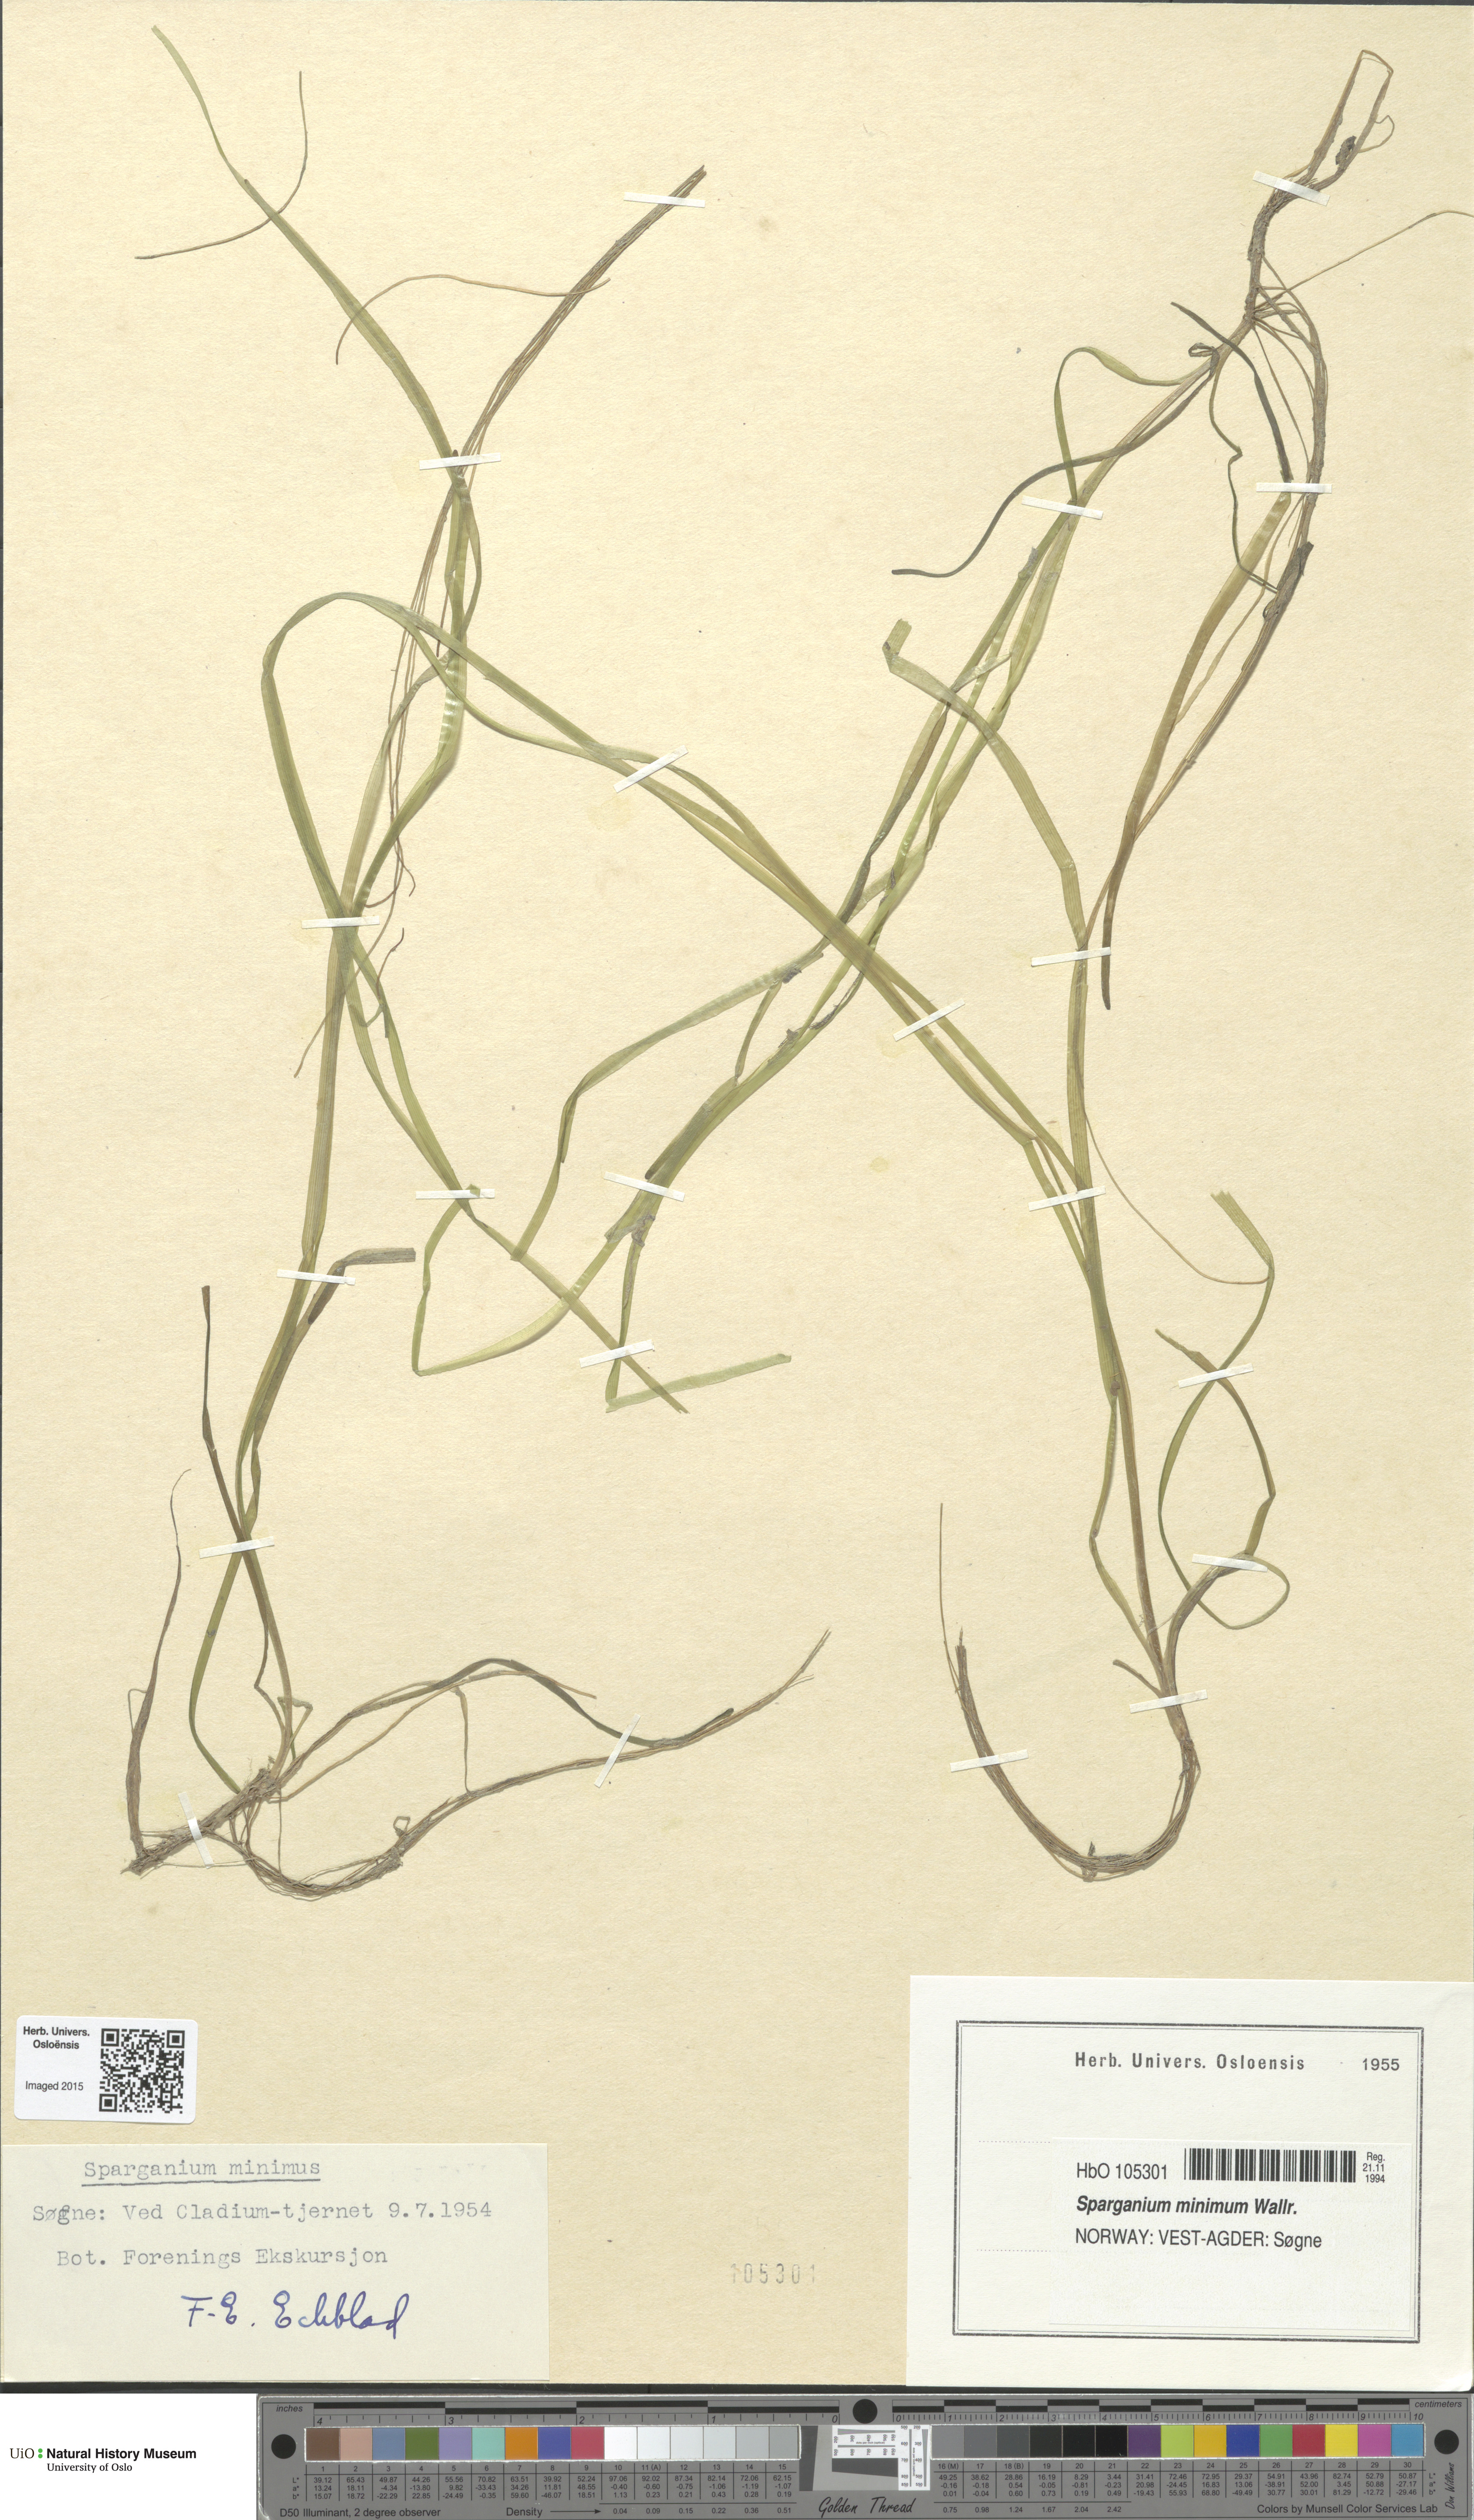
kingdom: Plantae
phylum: Tracheophyta
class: Liliopsida
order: Poales
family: Typhaceae
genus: Sparganium
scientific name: Sparganium natans
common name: Least bur-reed
